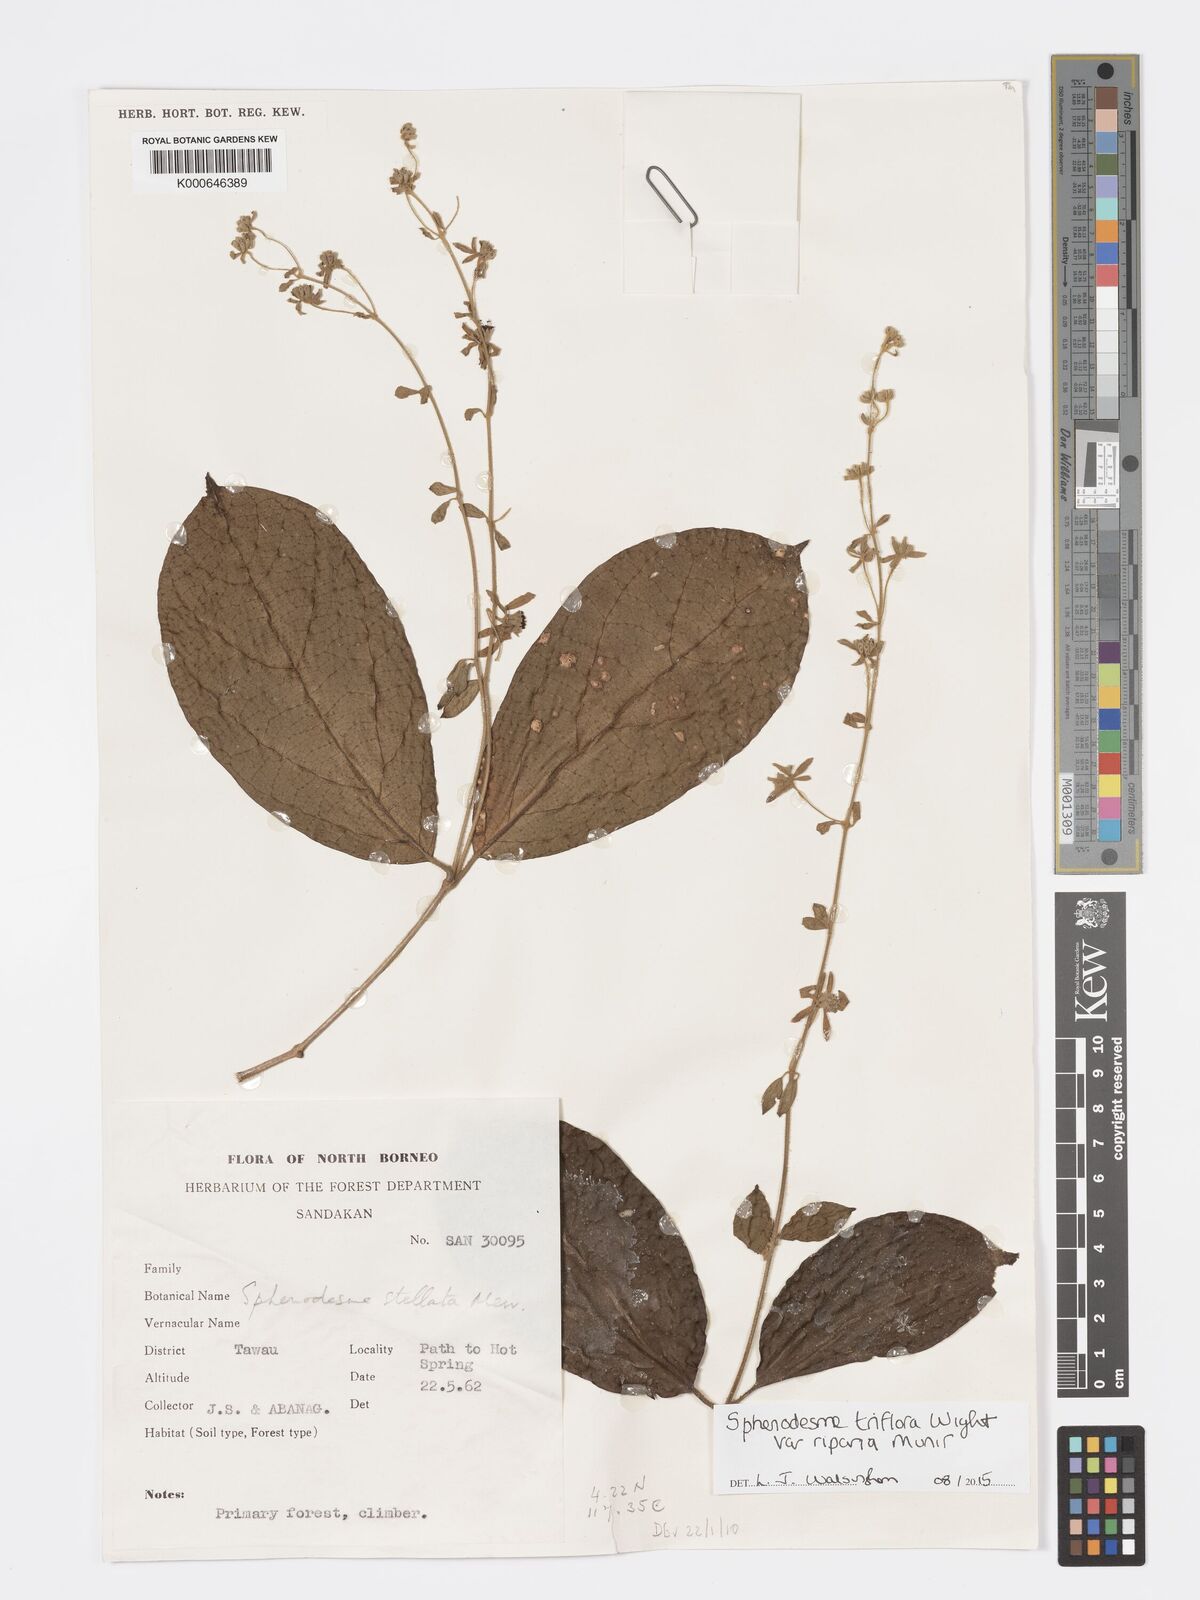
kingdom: Plantae
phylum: Tracheophyta
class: Magnoliopsida
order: Lamiales
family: Lamiaceae
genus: Sphenodesme
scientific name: Sphenodesme triflora
